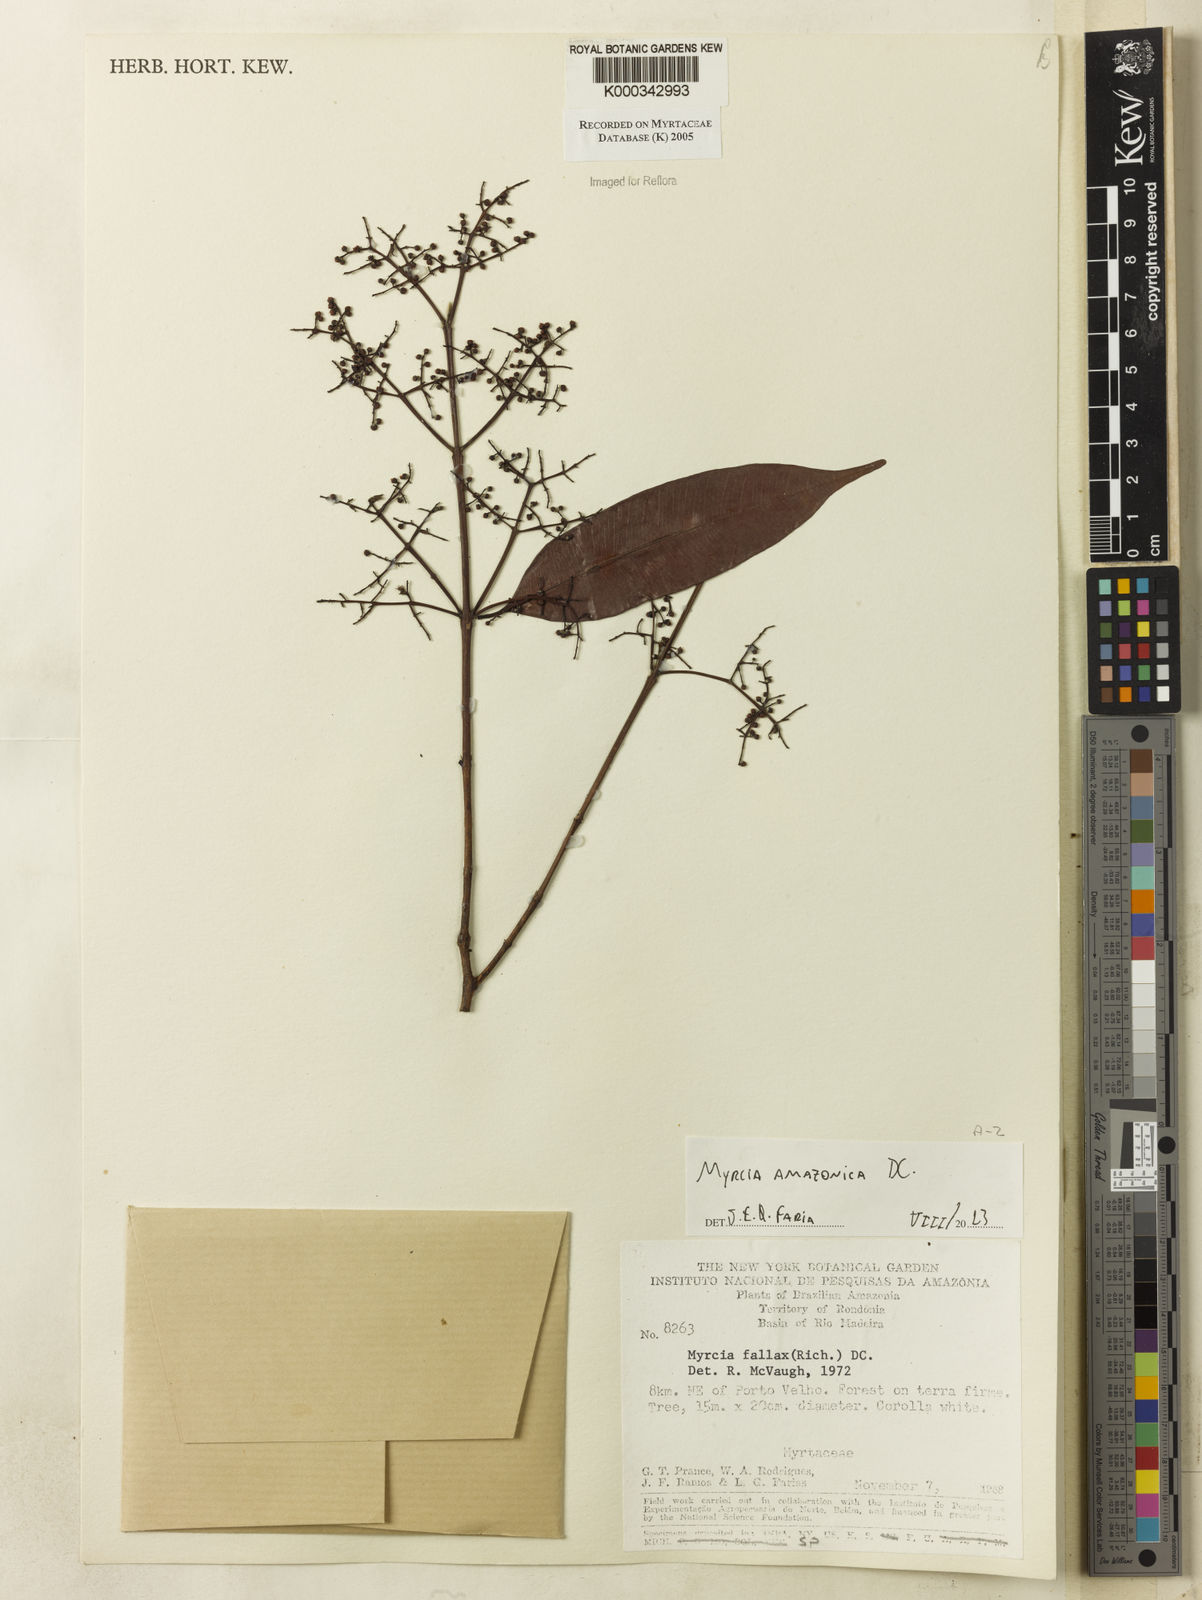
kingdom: Plantae
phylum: Tracheophyta
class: Magnoliopsida
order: Myrtales
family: Myrtaceae
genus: Myrcia
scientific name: Myrcia splendens
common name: Surinam cherry
